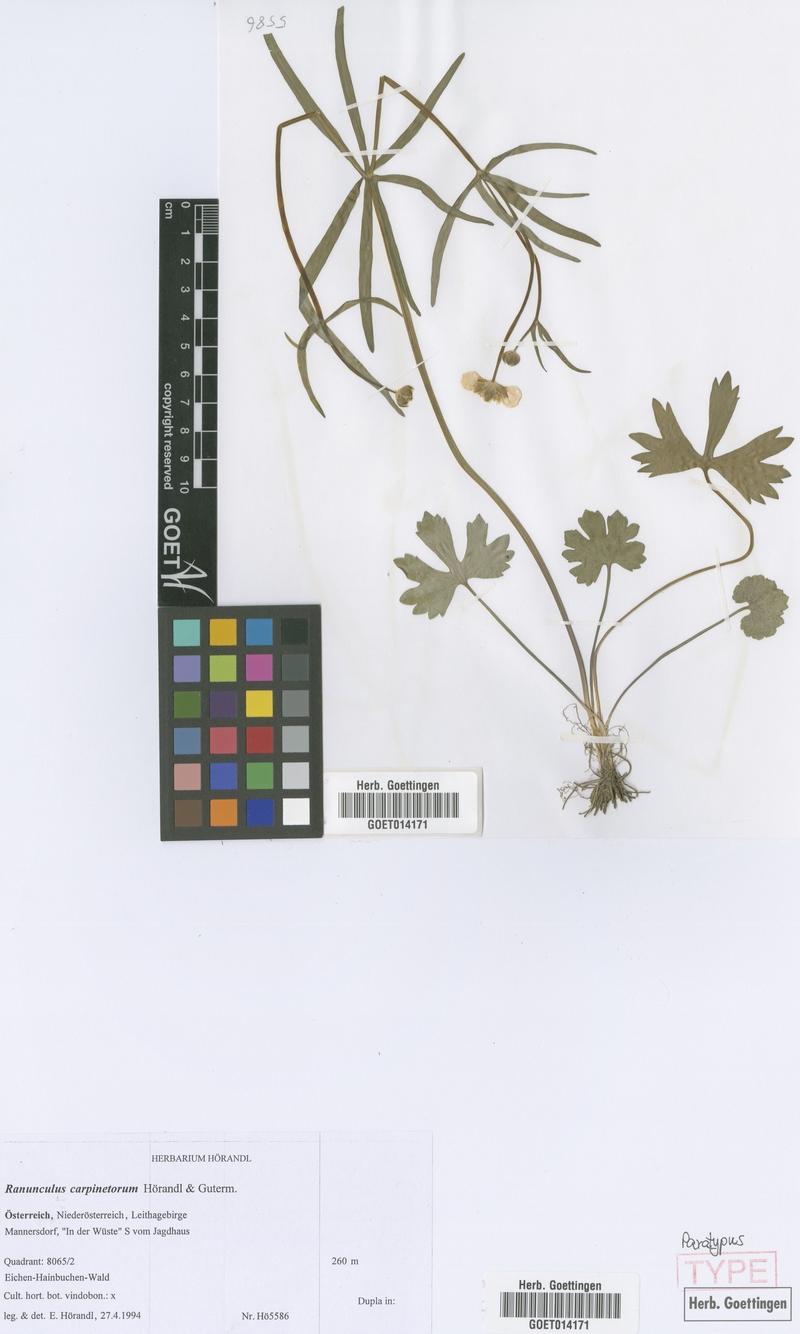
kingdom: Plantae
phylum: Tracheophyta
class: Magnoliopsida
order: Ranunculales
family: Ranunculaceae
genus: Ranunculus
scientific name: Ranunculus carpinetorum
